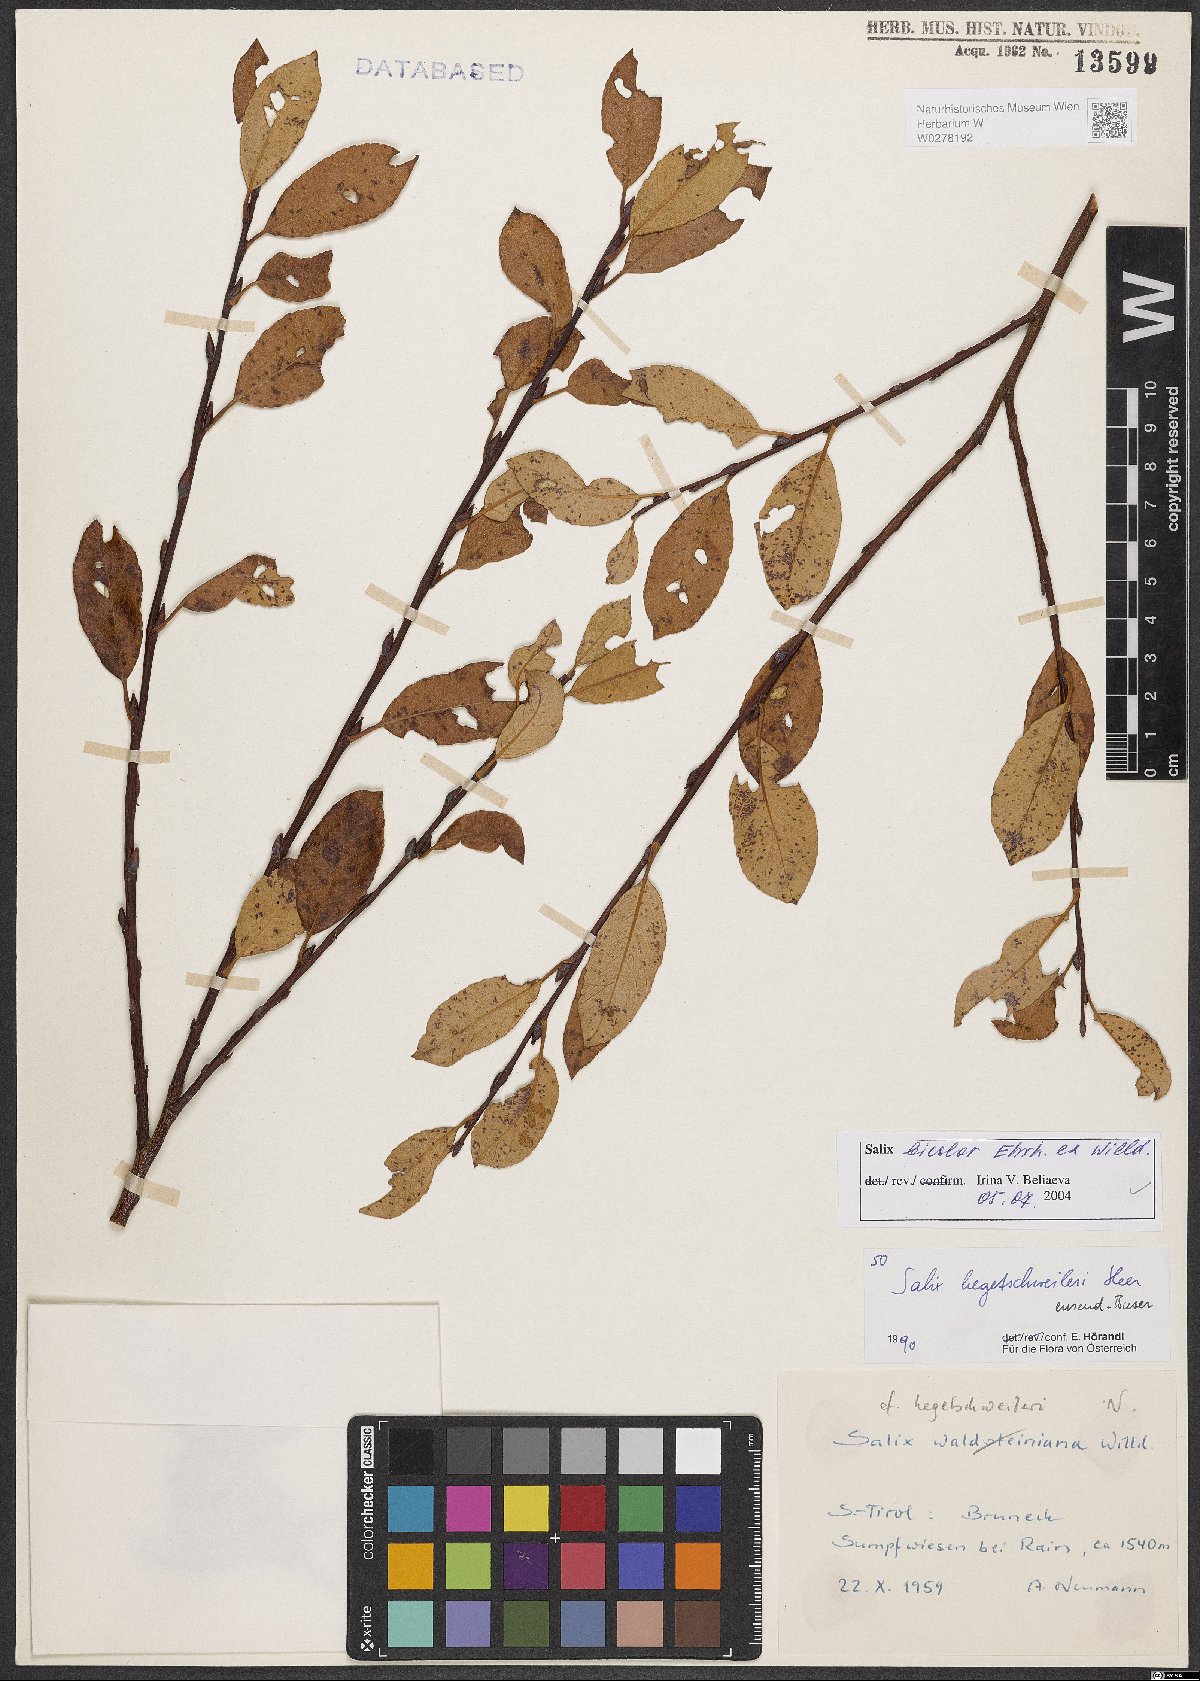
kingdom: Plantae
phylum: Tracheophyta
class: Magnoliopsida
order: Malpighiales
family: Salicaceae
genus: Salix
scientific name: Salix bicolor
